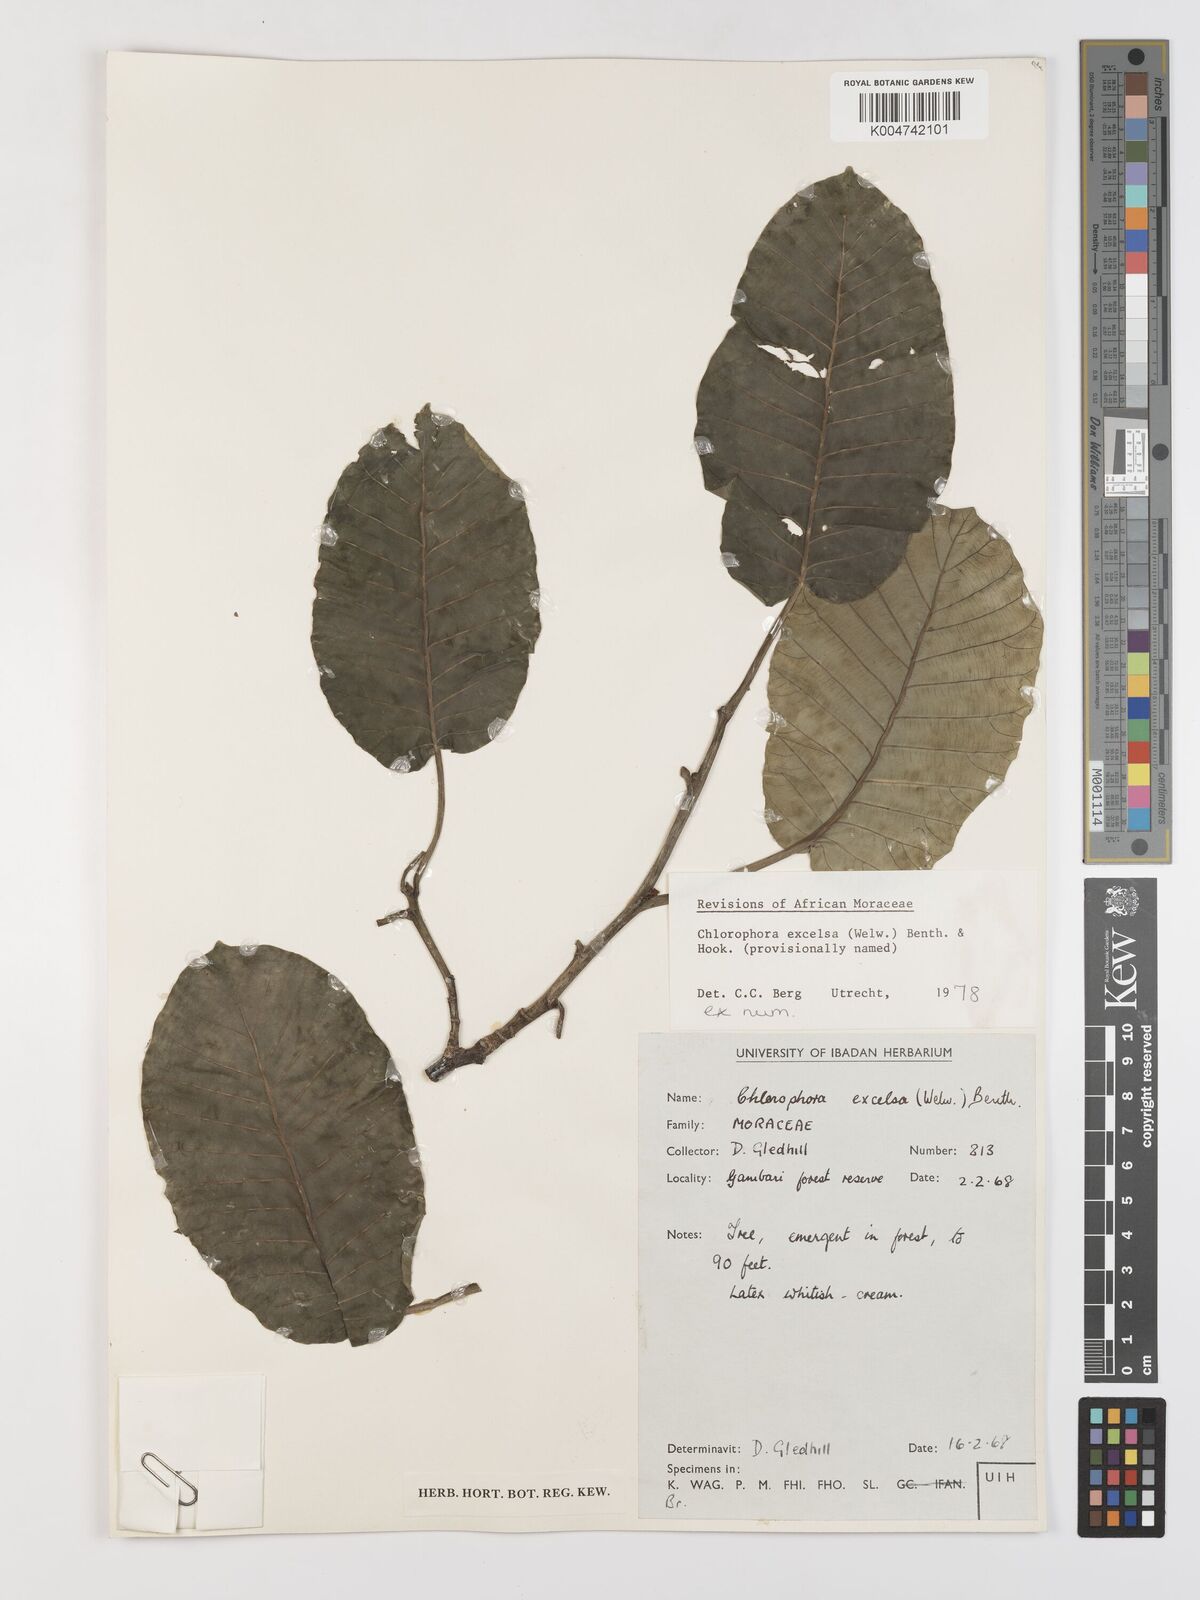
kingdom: Plantae
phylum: Tracheophyta
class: Magnoliopsida
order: Rosales
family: Moraceae
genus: Milicia
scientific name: Milicia excelsa
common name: African teak
